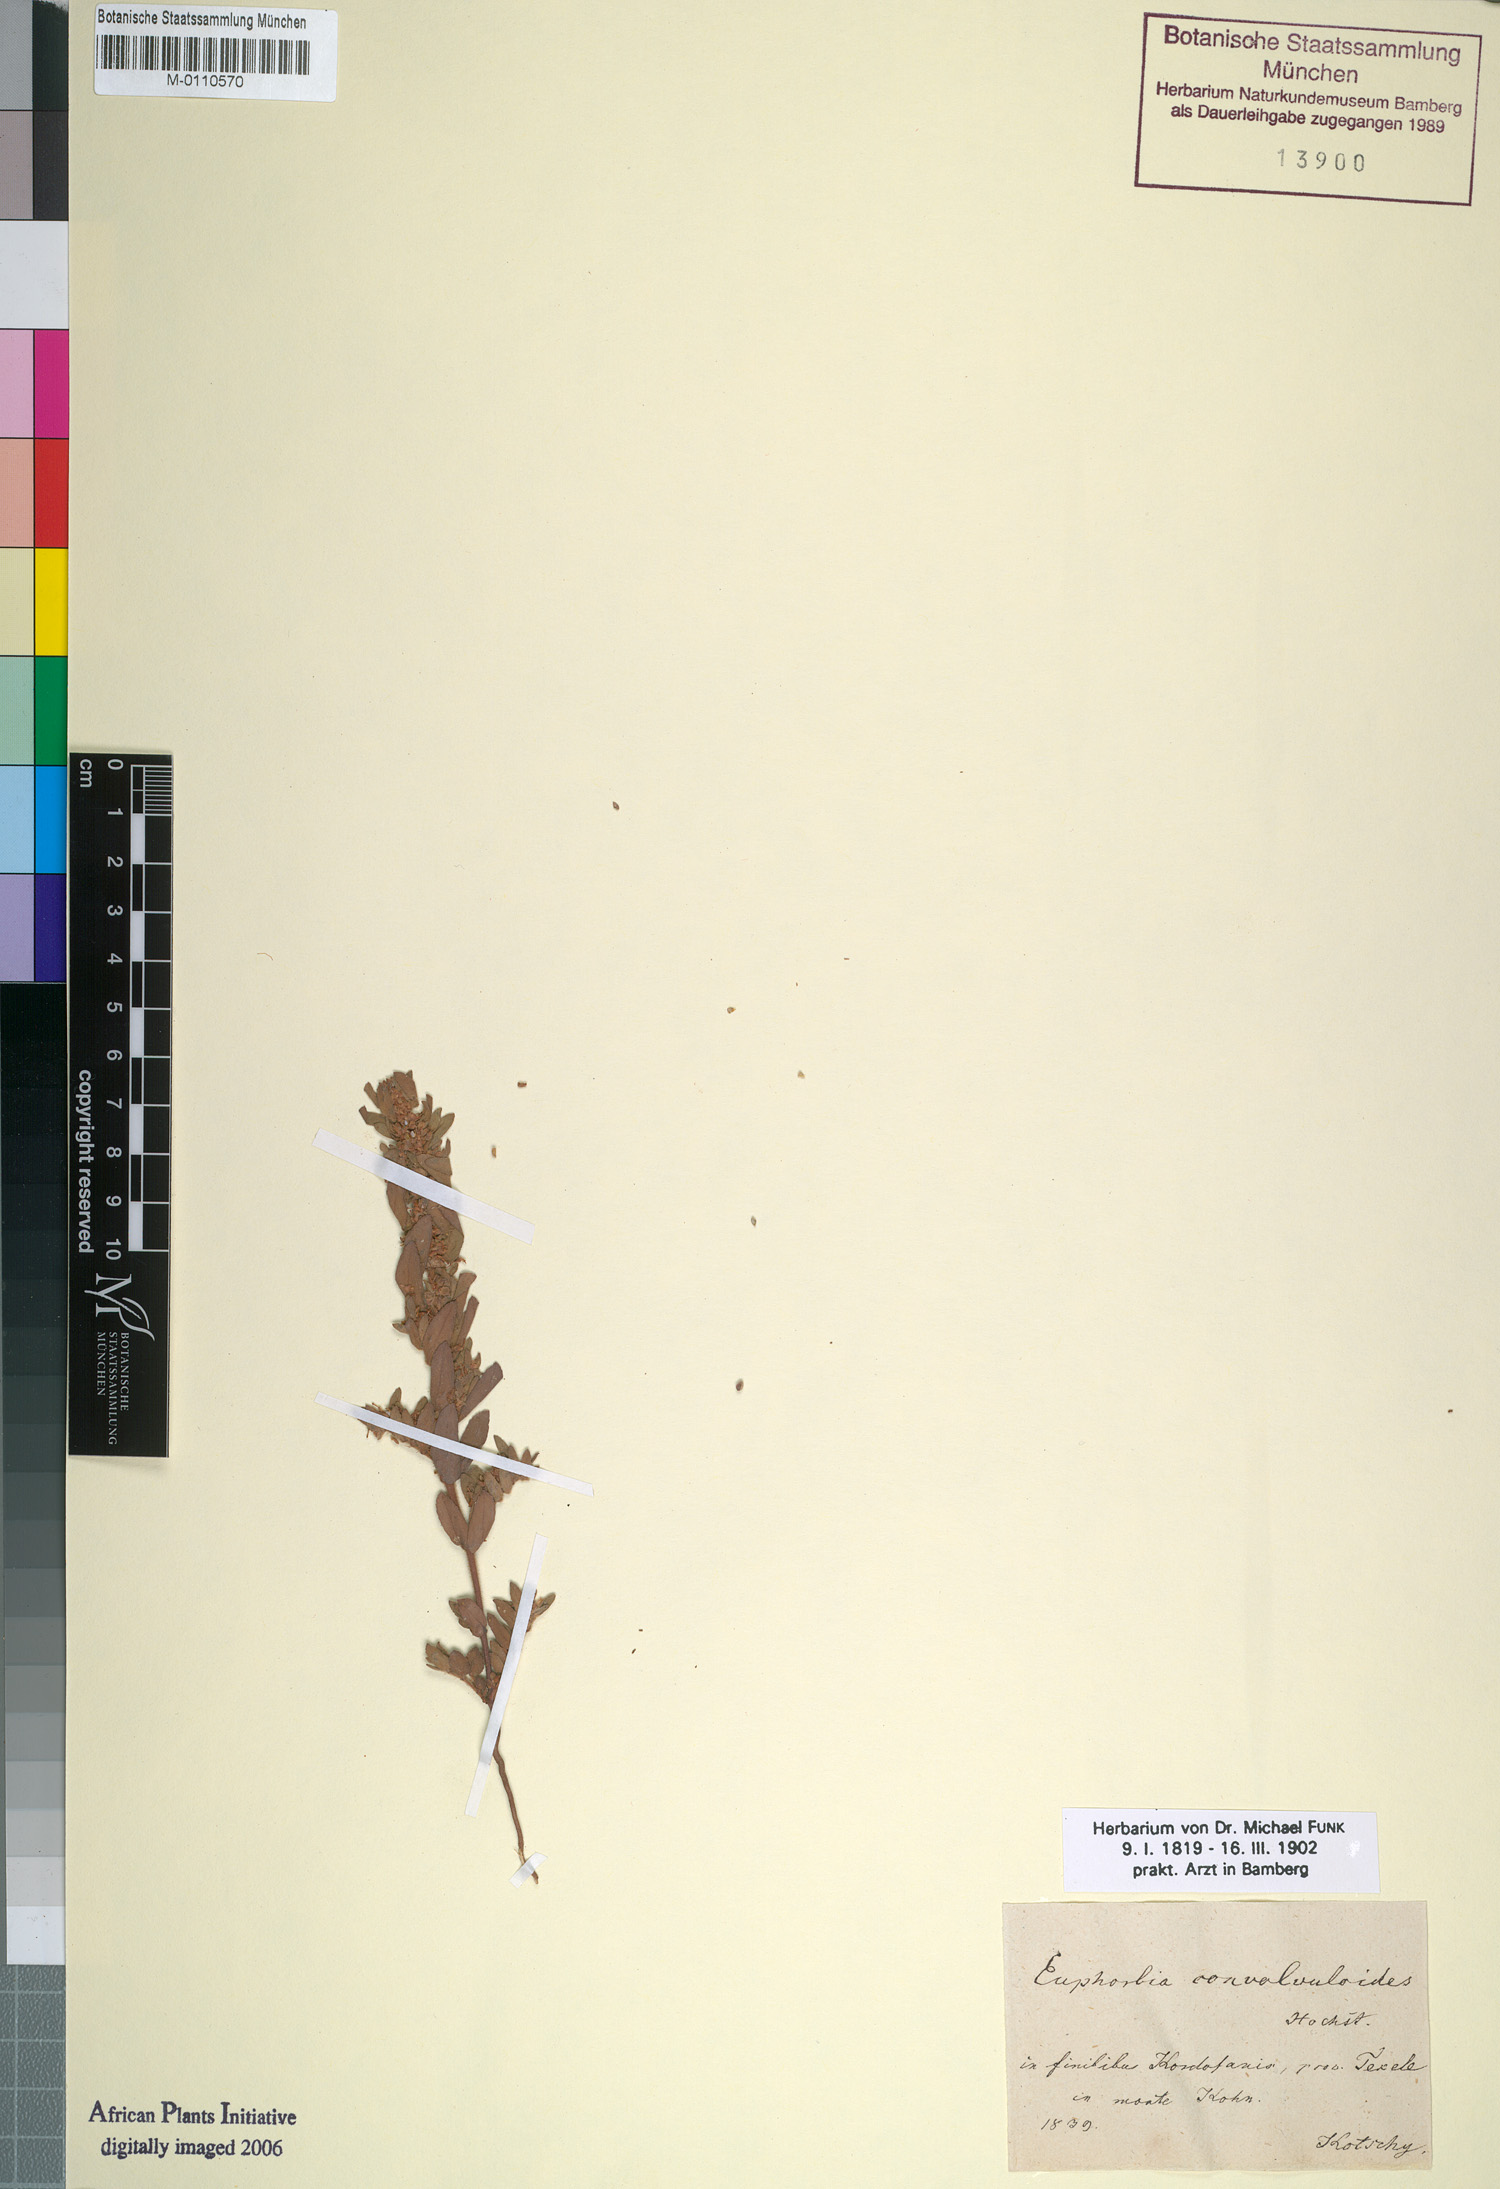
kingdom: Plantae
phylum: Tracheophyta
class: Magnoliopsida
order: Malpighiales
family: Euphorbiaceae
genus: Euphorbia
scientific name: Euphorbia convolvuloides
